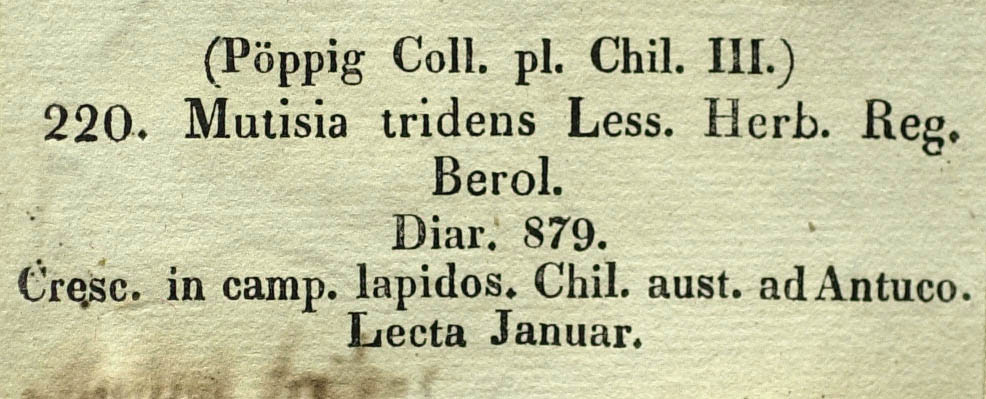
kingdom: Plantae
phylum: Tracheophyta
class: Magnoliopsida
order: Asterales
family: Asteraceae
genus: Mutisia
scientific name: Mutisia tridens
